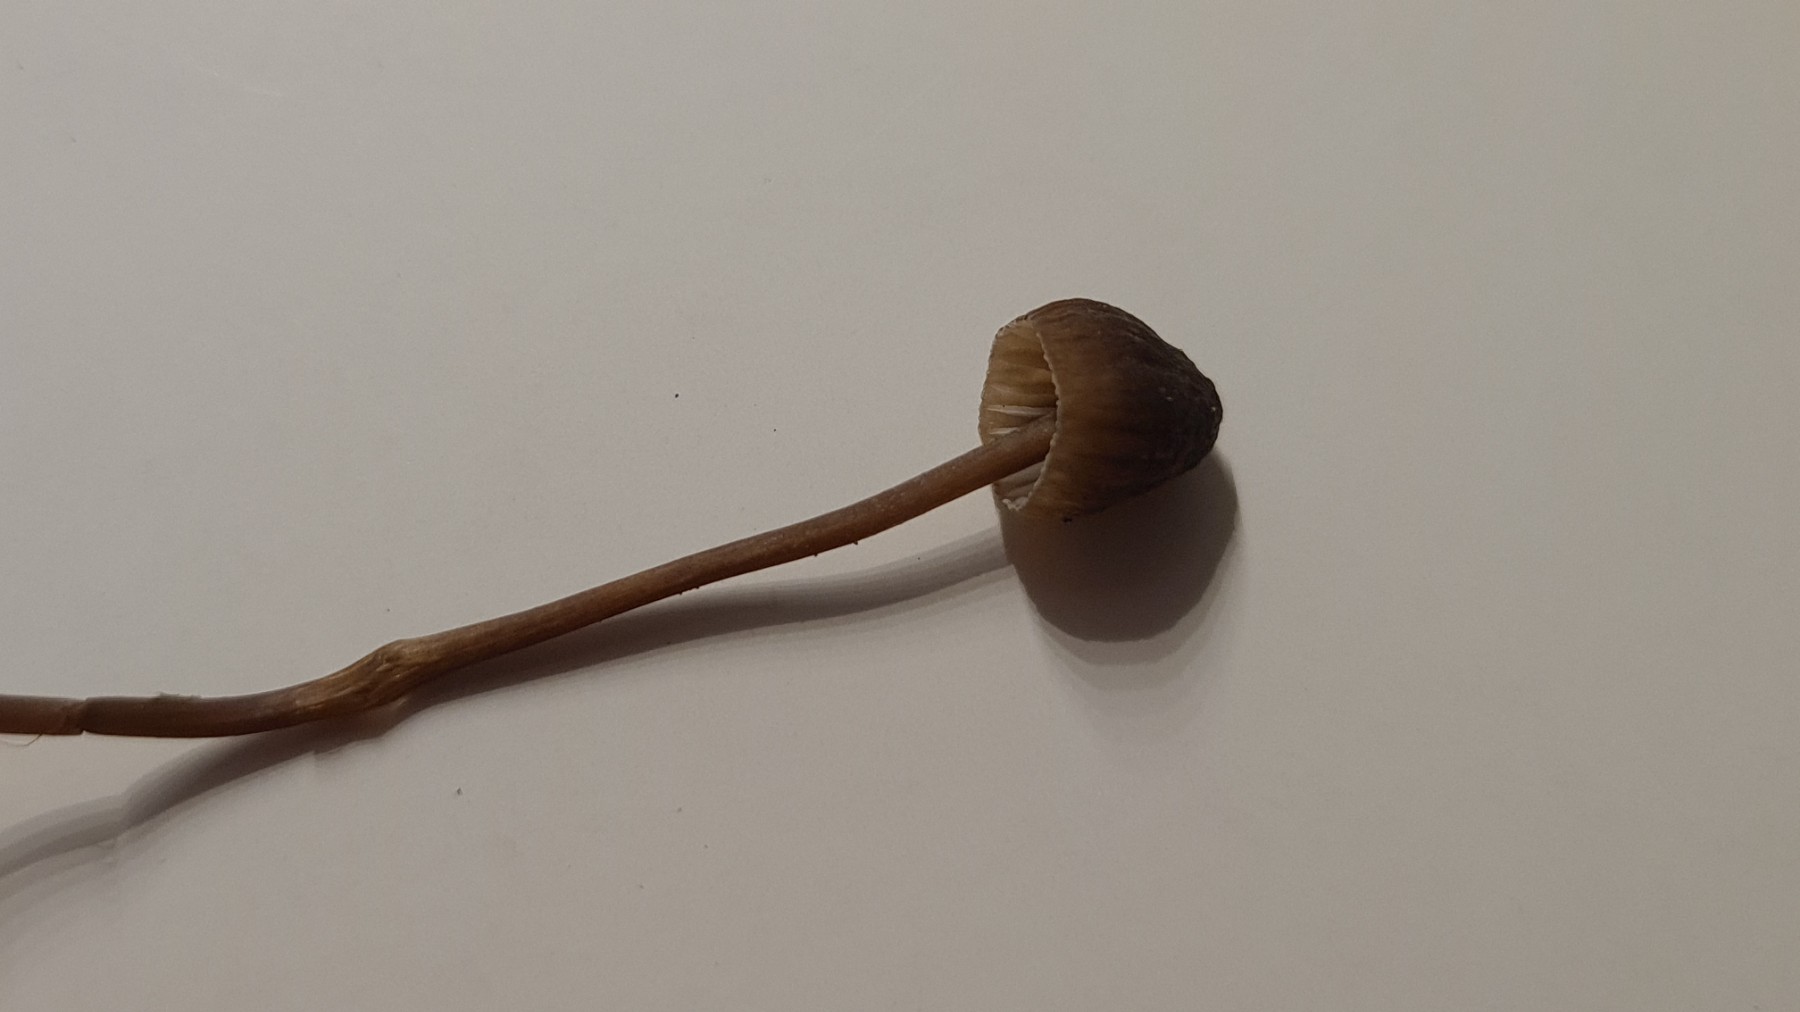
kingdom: Fungi
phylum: Basidiomycota
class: Agaricomycetes
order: Agaricales
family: Mycenaceae
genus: Mycena
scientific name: Mycena galopus
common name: hvidmælket huesvamp
